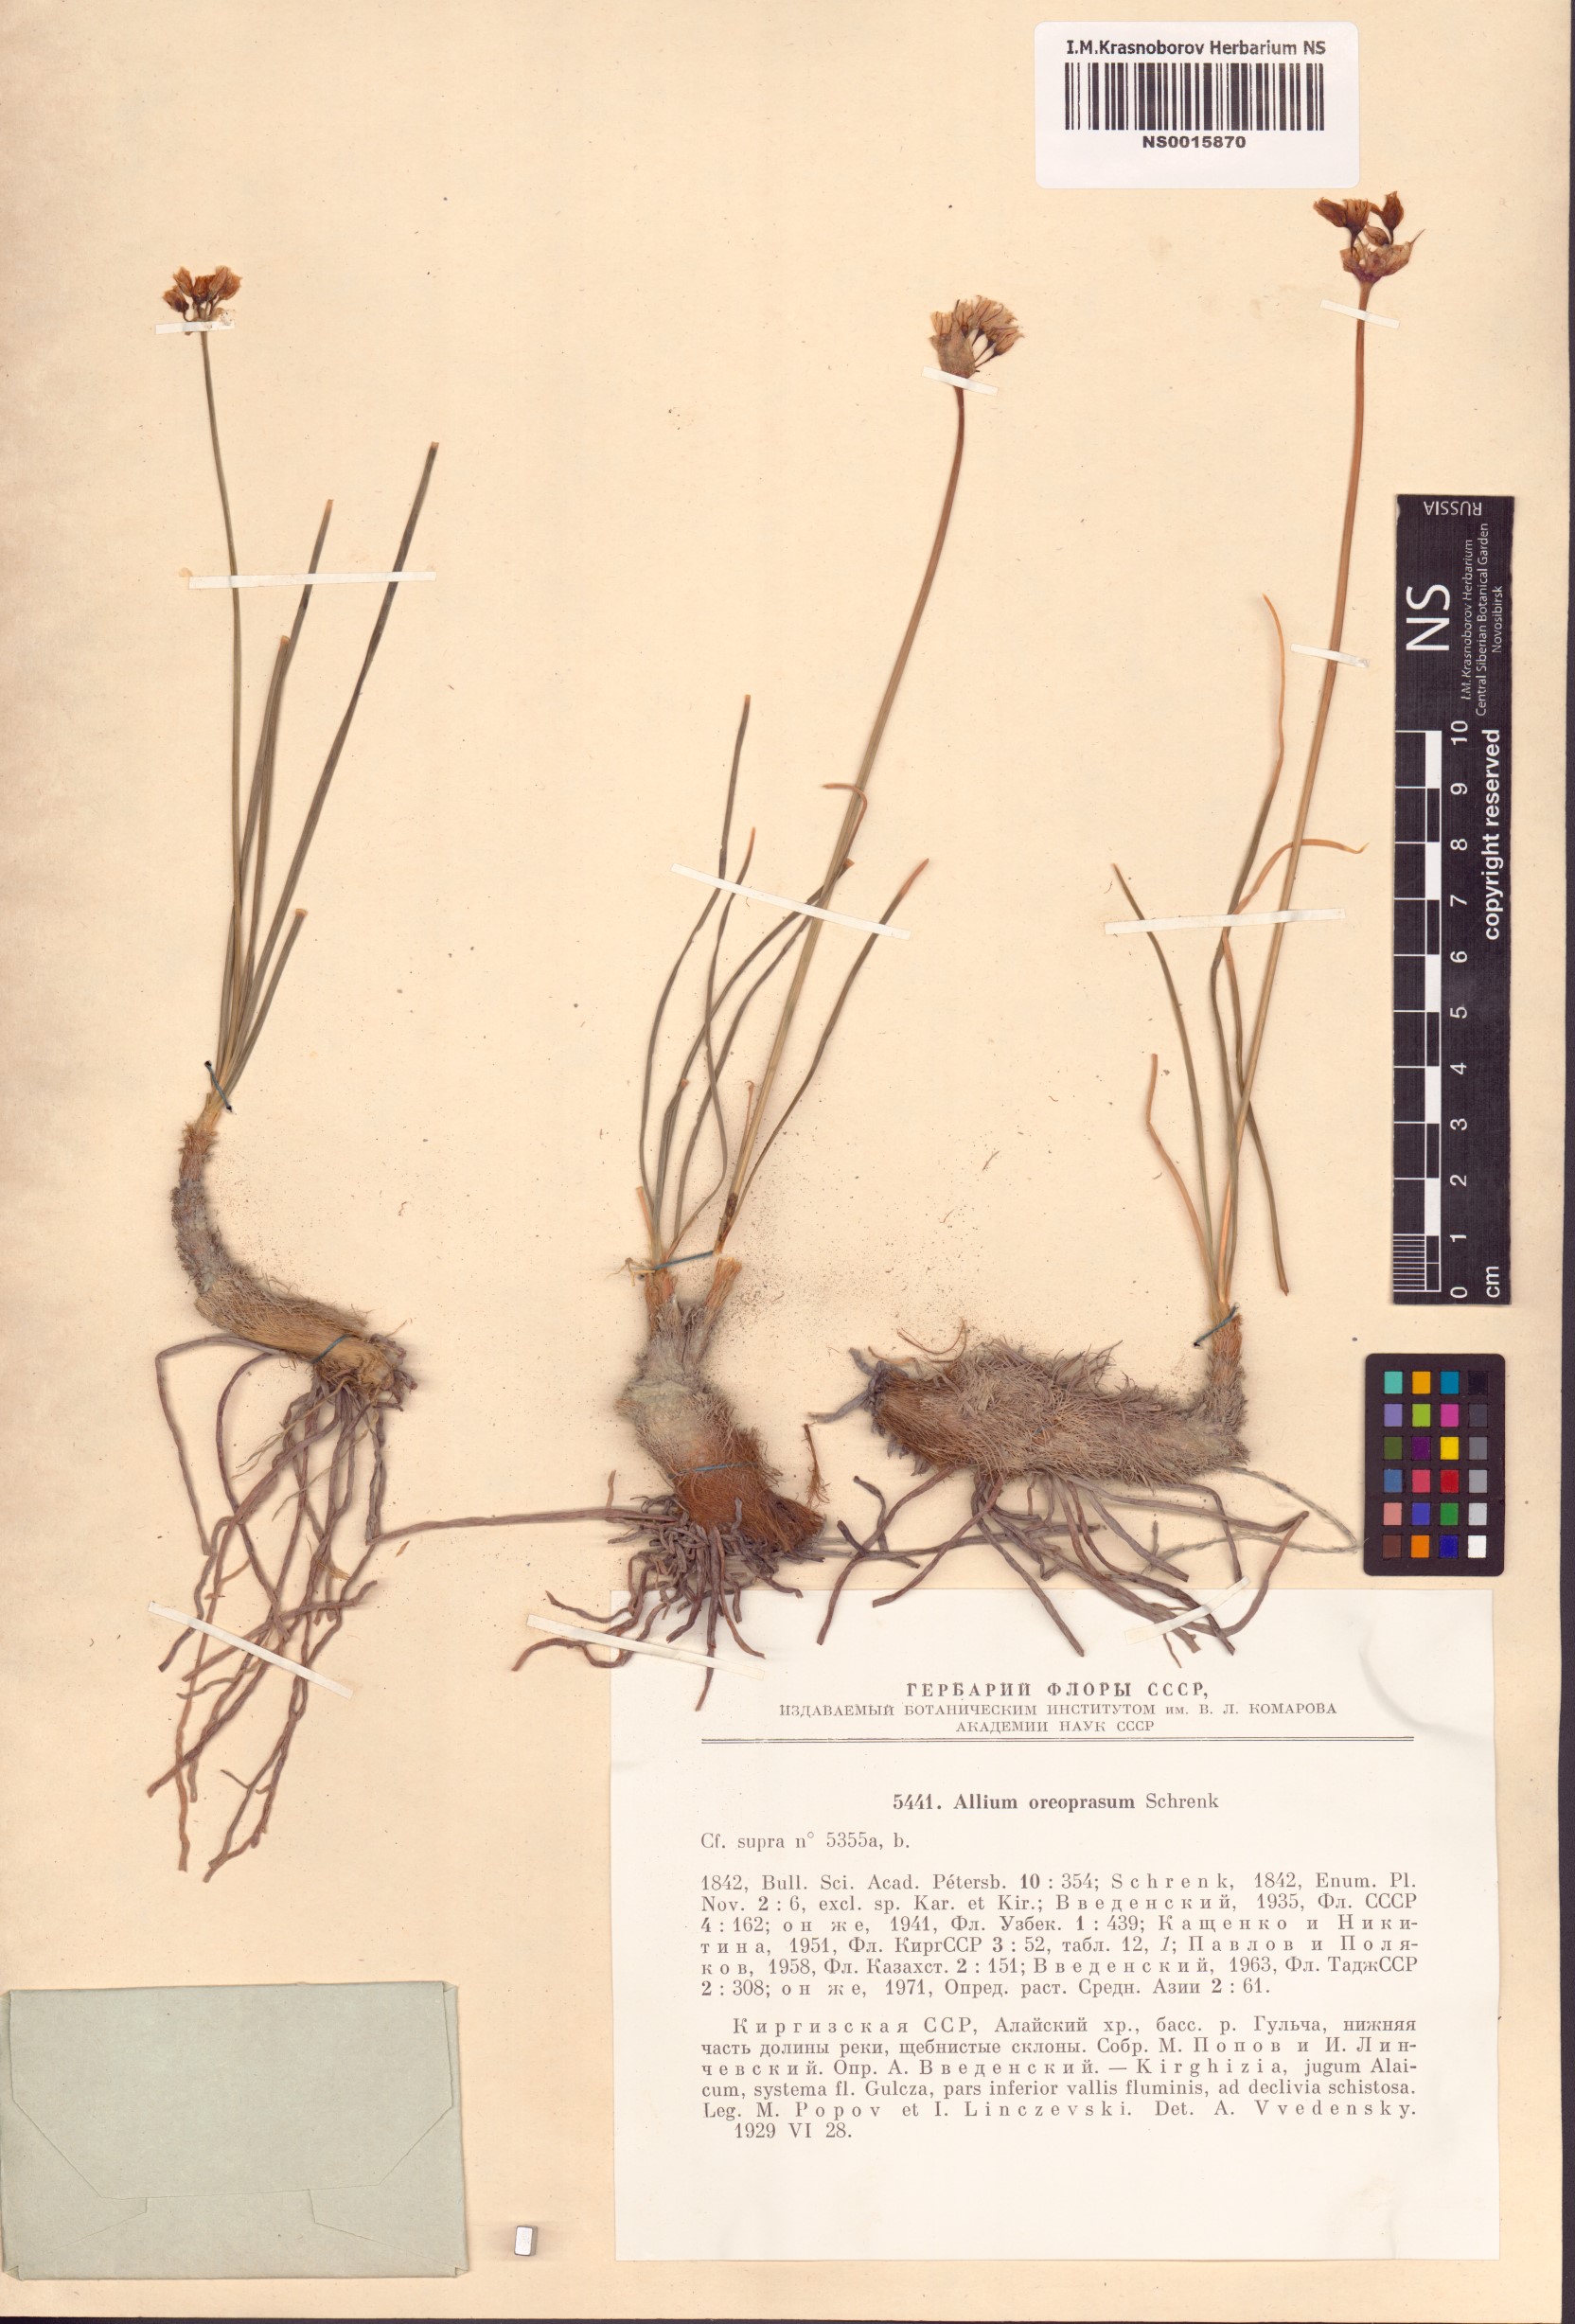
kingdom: Plantae
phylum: Tracheophyta
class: Liliopsida
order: Asparagales
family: Amaryllidaceae
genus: Allium
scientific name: Allium oreoprasum
